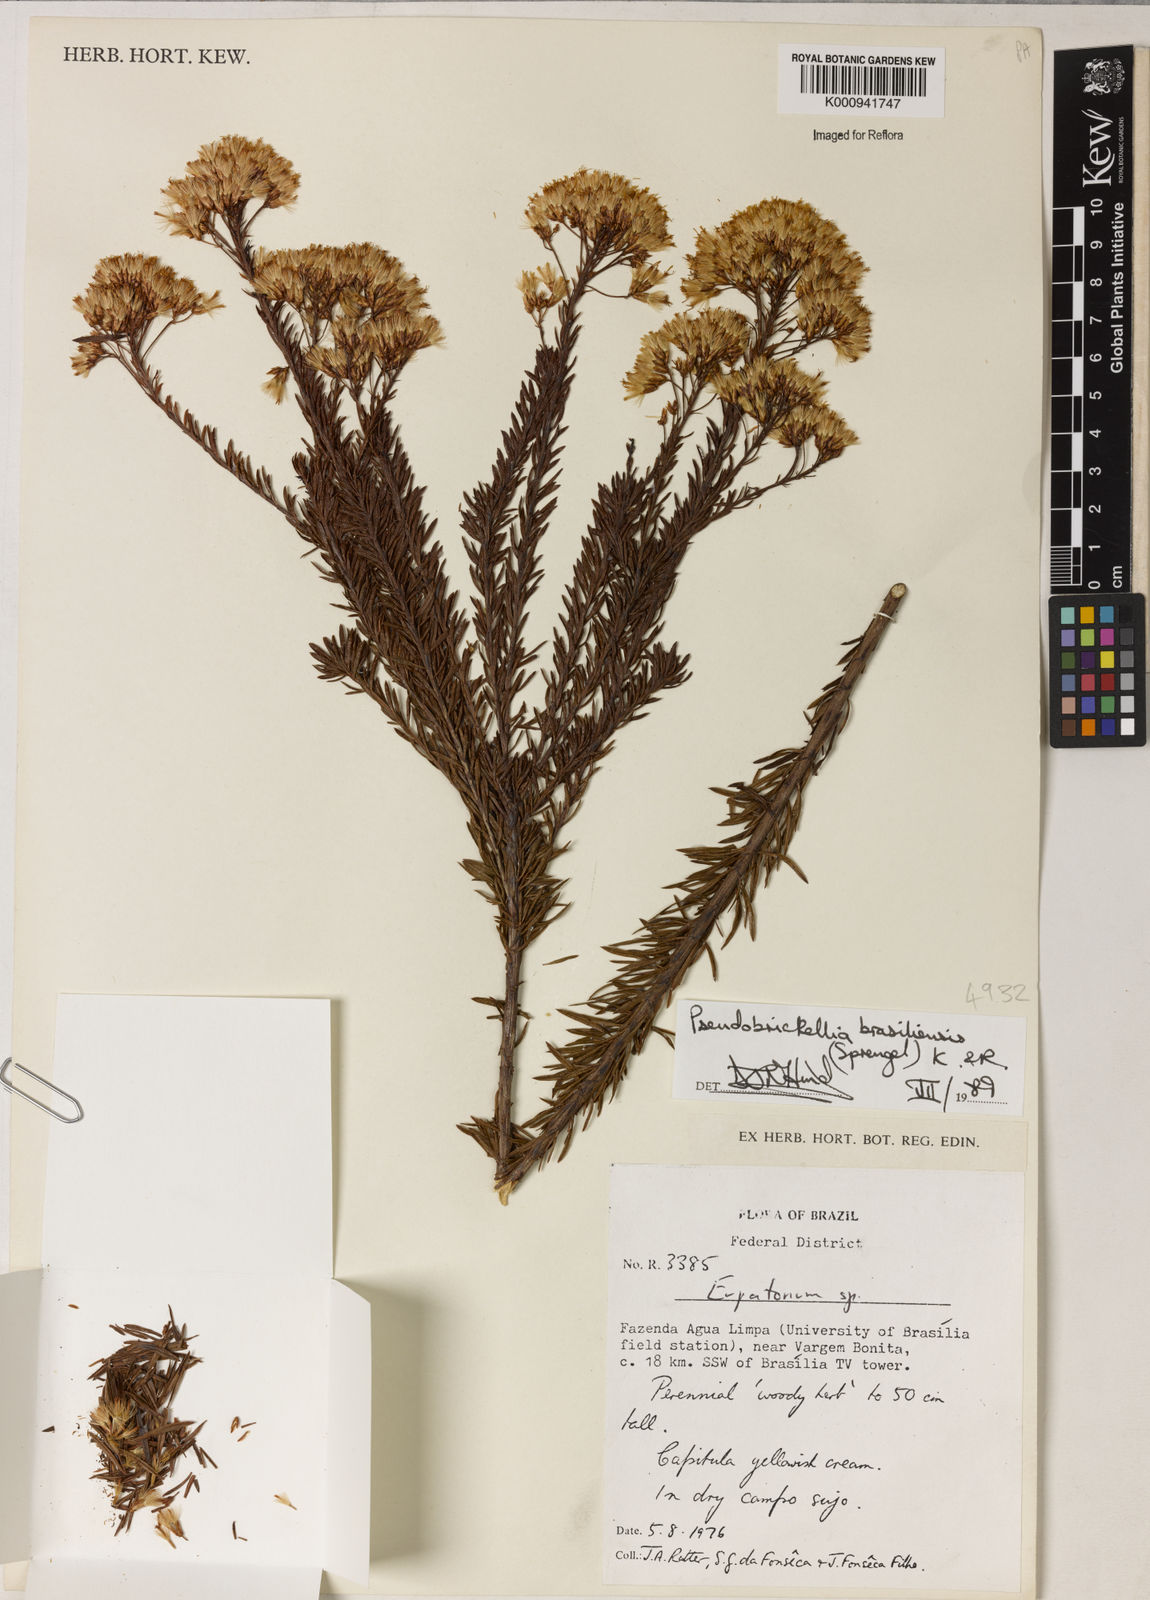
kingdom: Plantae
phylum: Tracheophyta
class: Magnoliopsida
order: Asterales
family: Asteraceae
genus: Pseudobrickellia
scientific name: Pseudobrickellia brasiliensis
